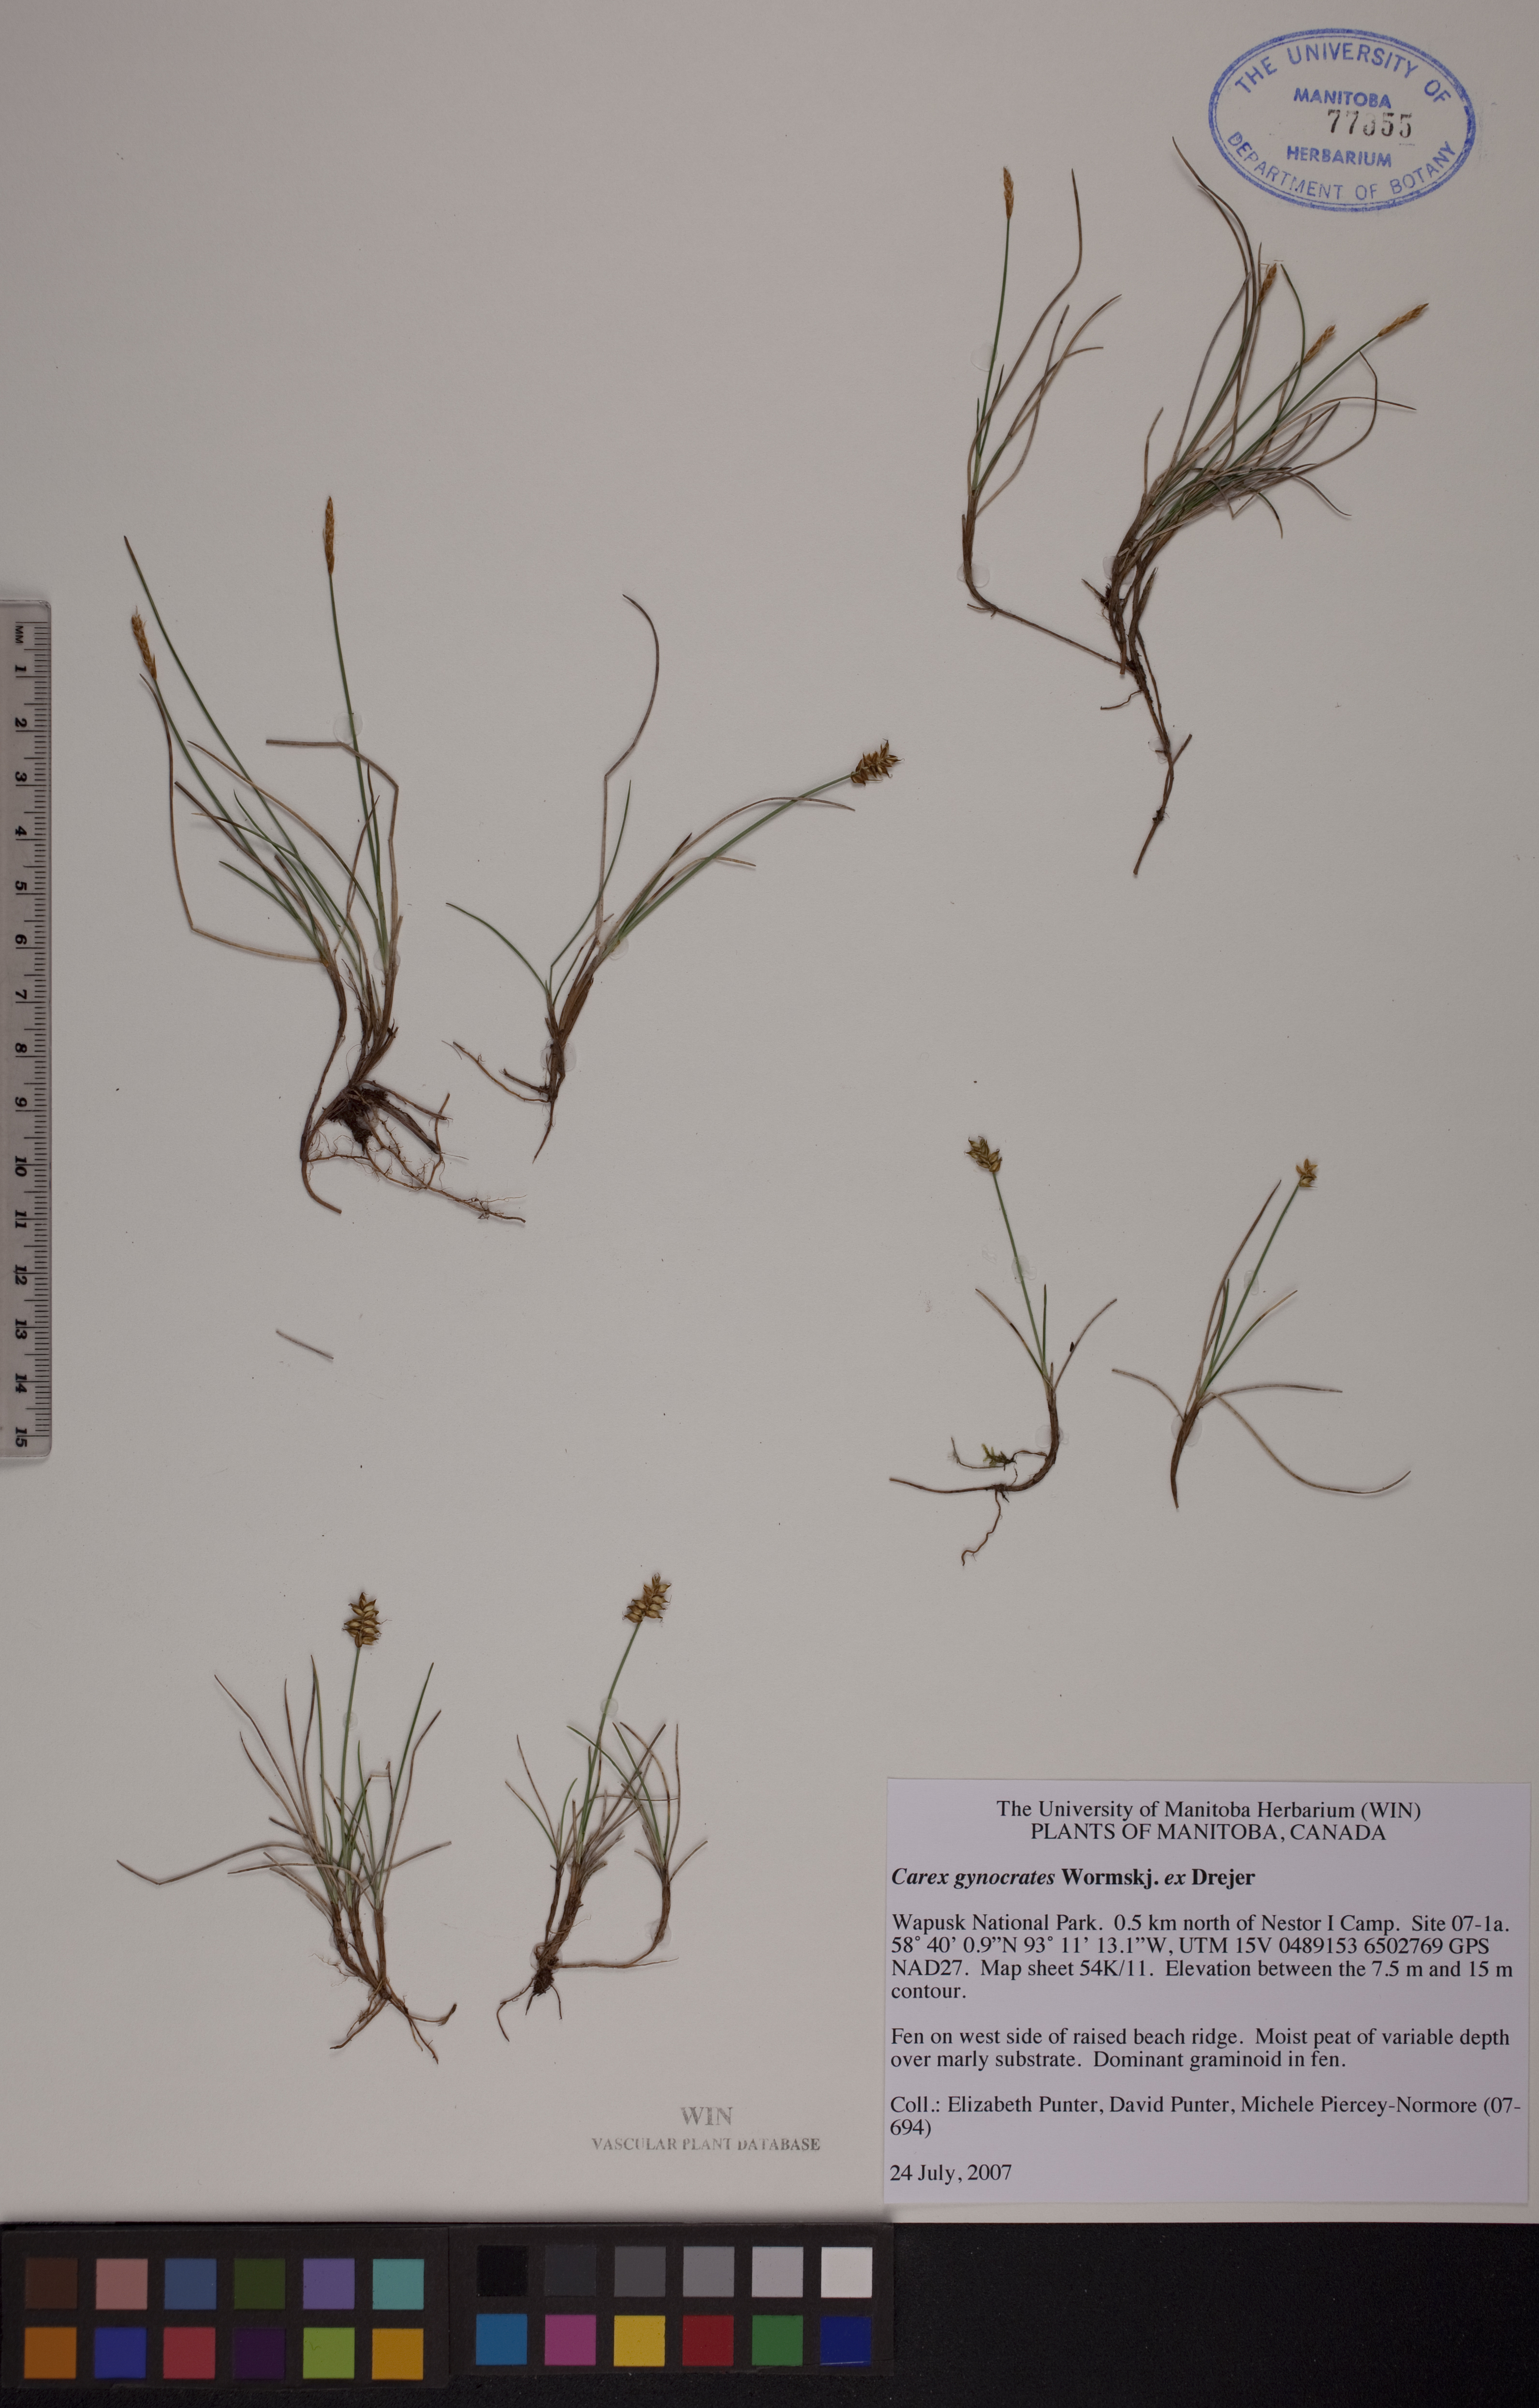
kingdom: Plantae
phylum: Tracheophyta
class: Liliopsida
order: Poales
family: Cyperaceae
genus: Carex
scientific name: Carex nardina
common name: Nard sedge
